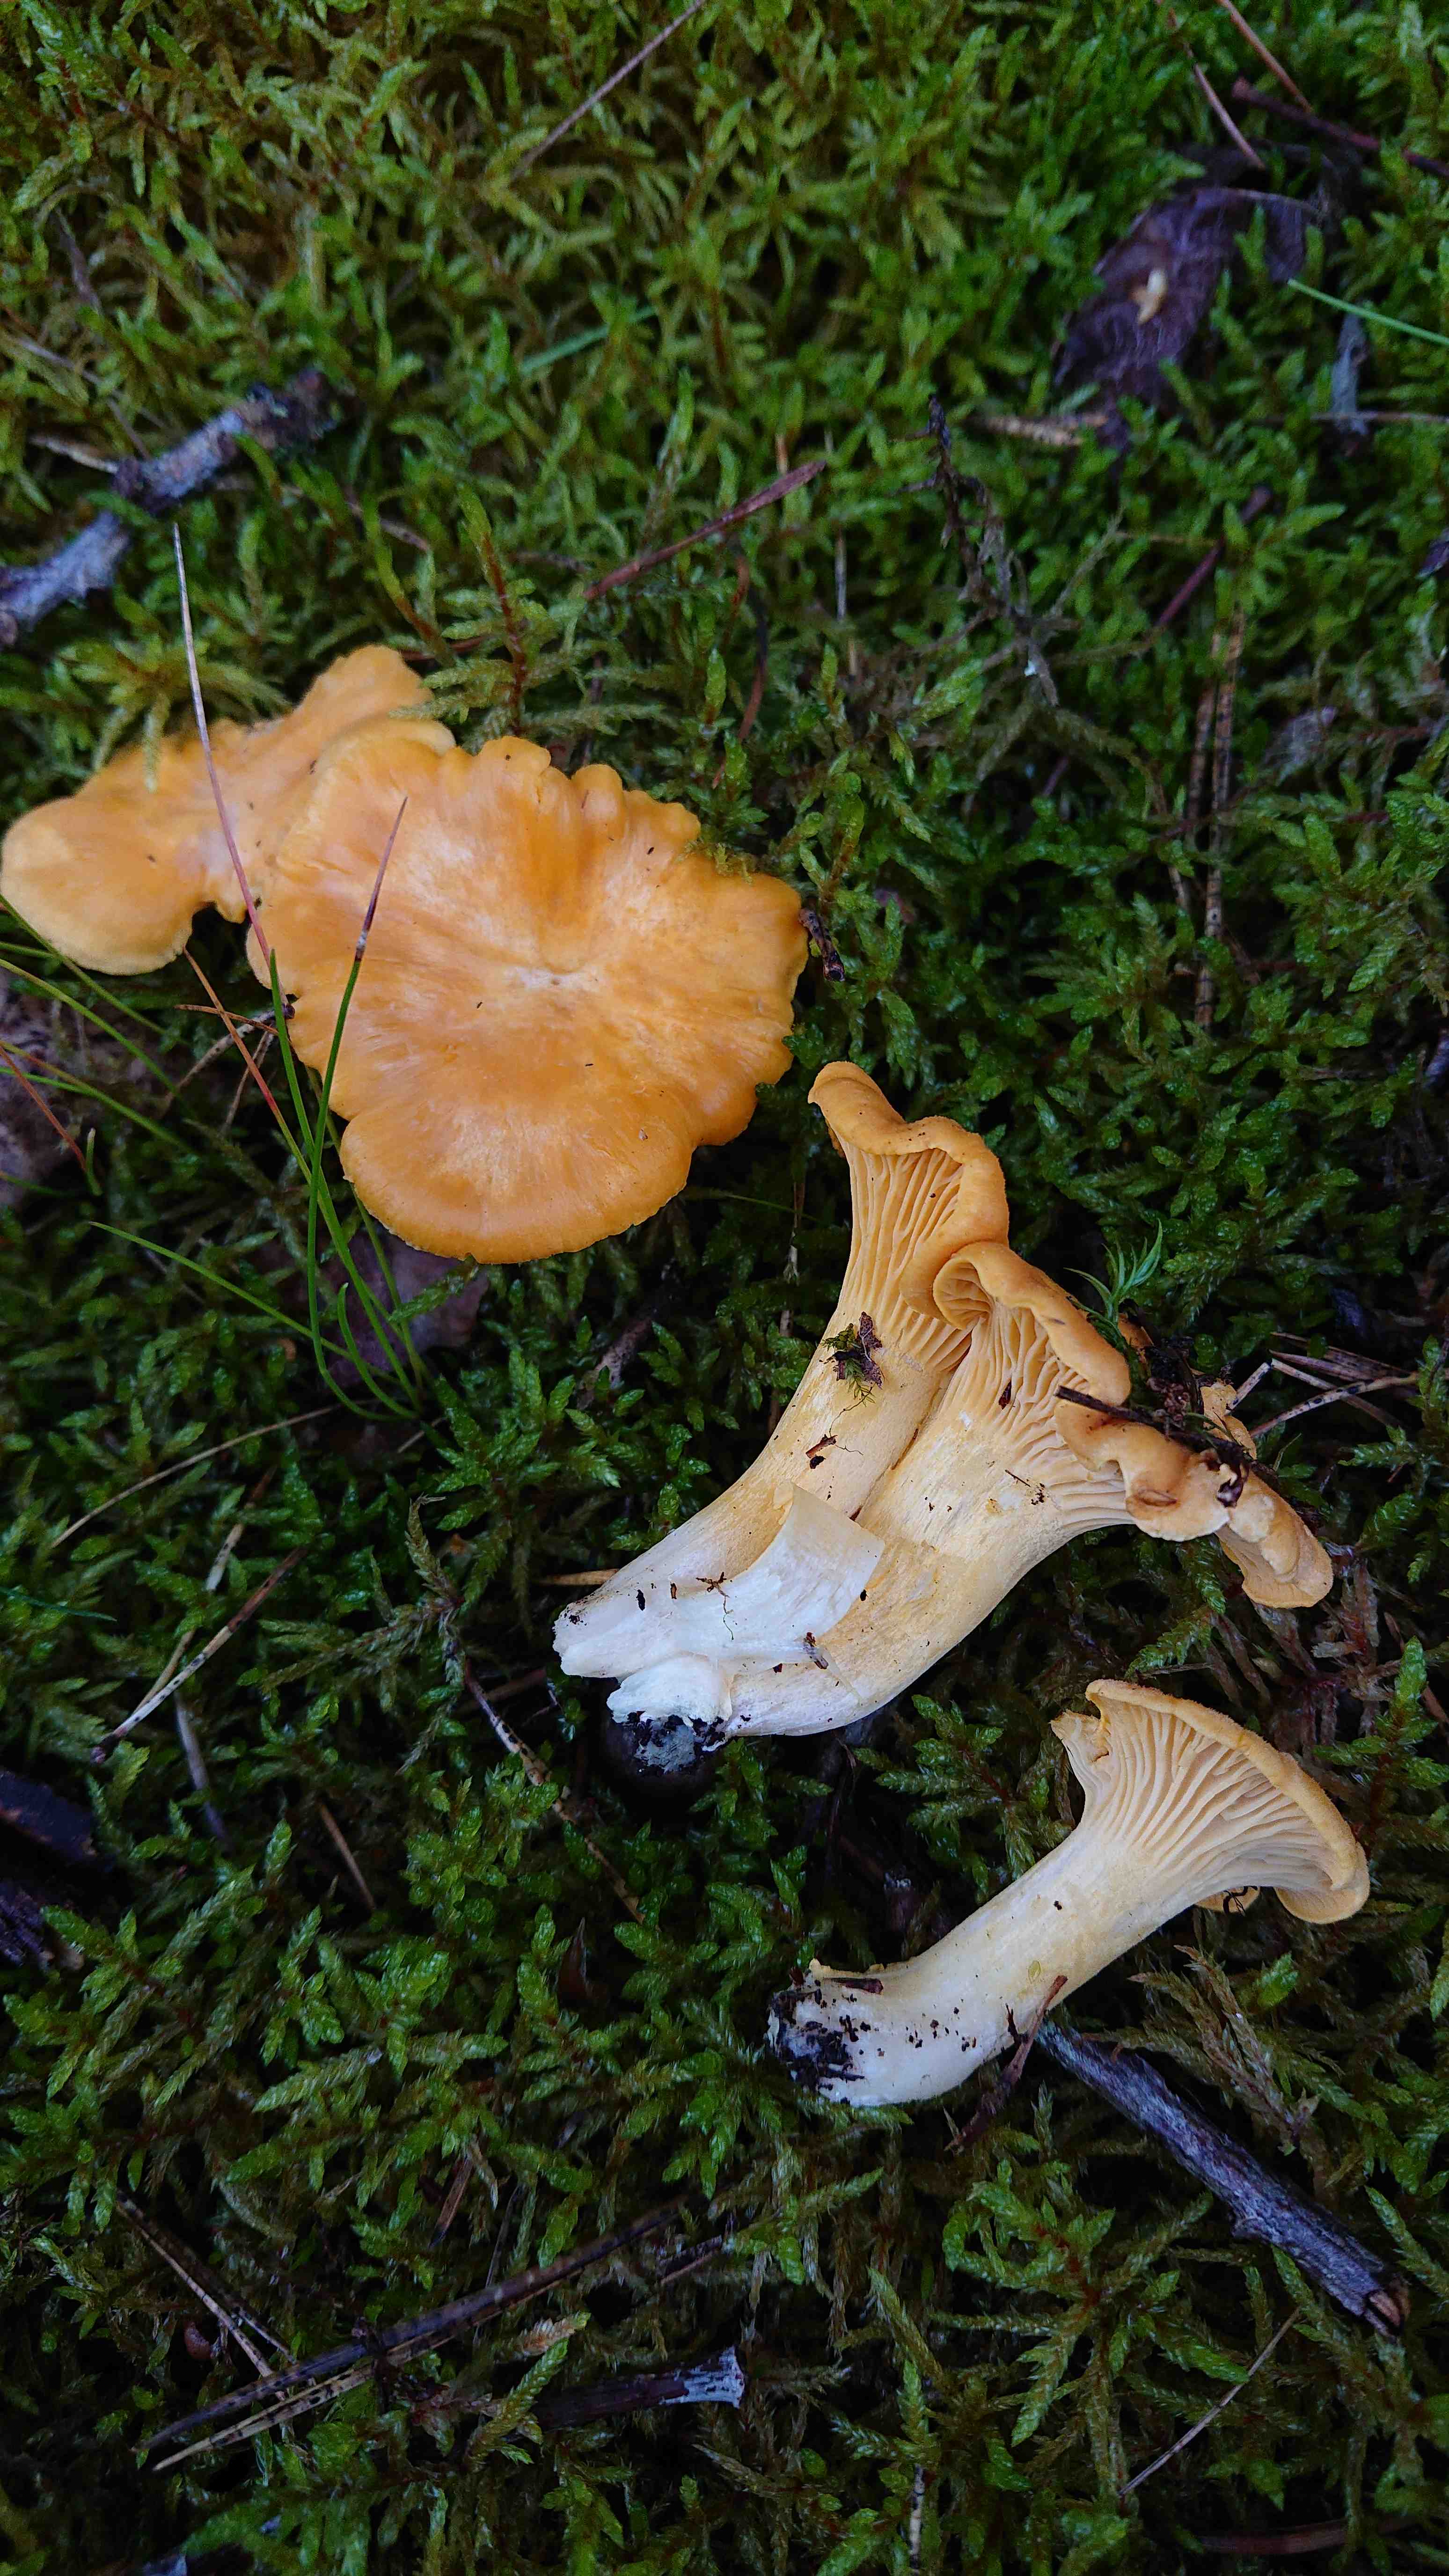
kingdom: Fungi
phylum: Basidiomycota
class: Agaricomycetes
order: Cantharellales
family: Hydnaceae
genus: Cantharellus
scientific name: Cantharellus cibarius
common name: almindelig kantarel
